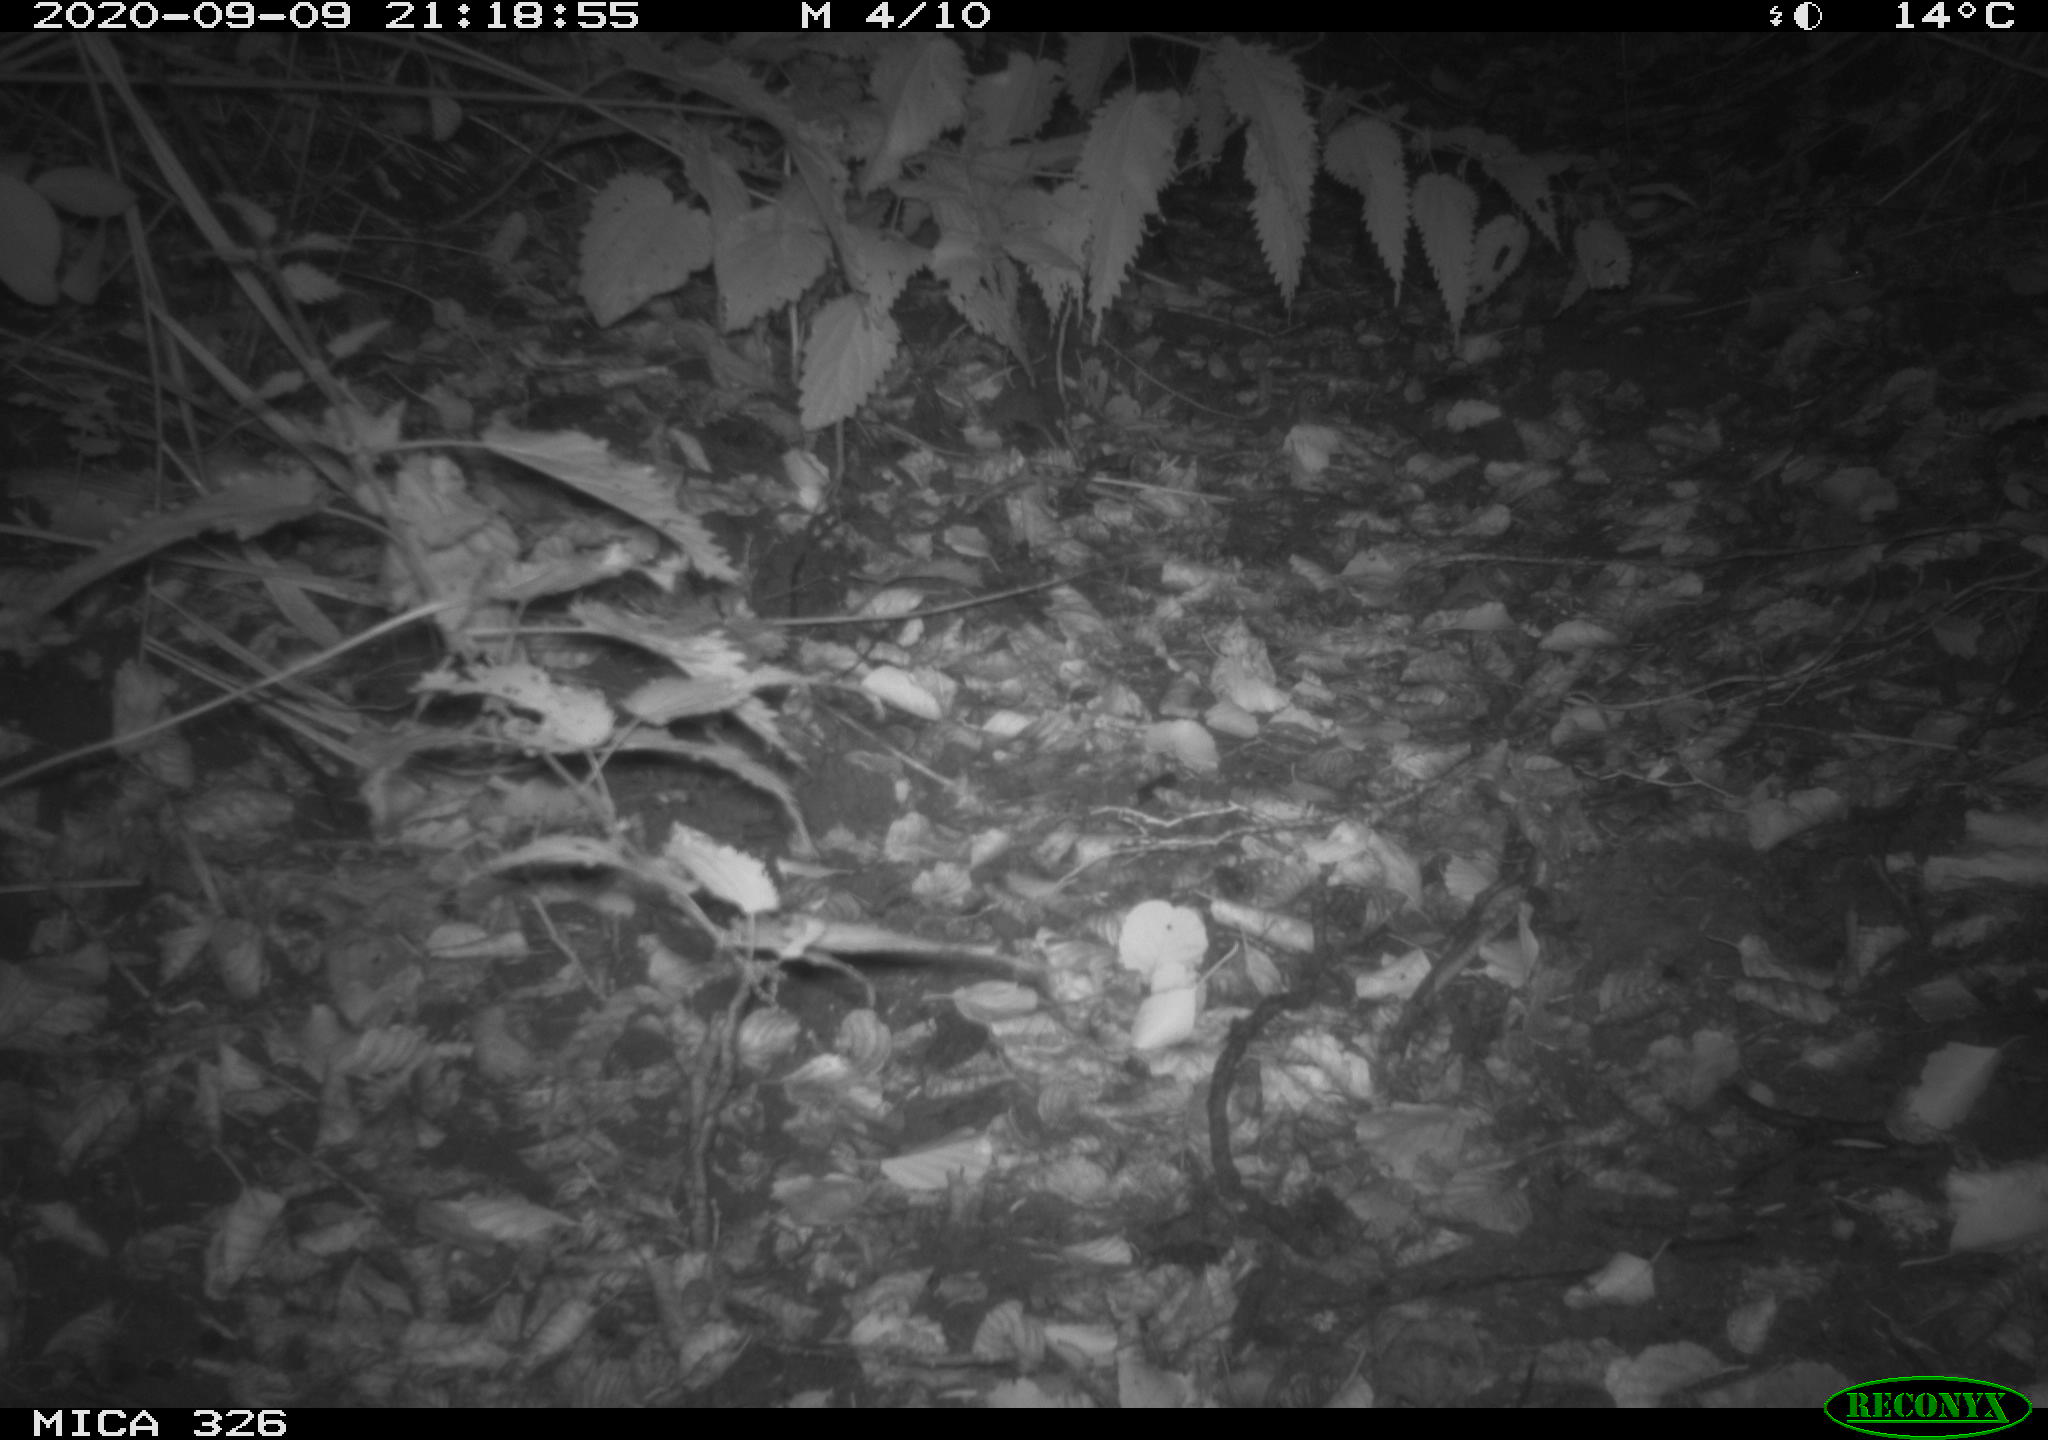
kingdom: Animalia
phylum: Chordata
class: Mammalia
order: Carnivora
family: Mustelidae
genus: Lutra
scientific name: Lutra lutra
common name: European otter
